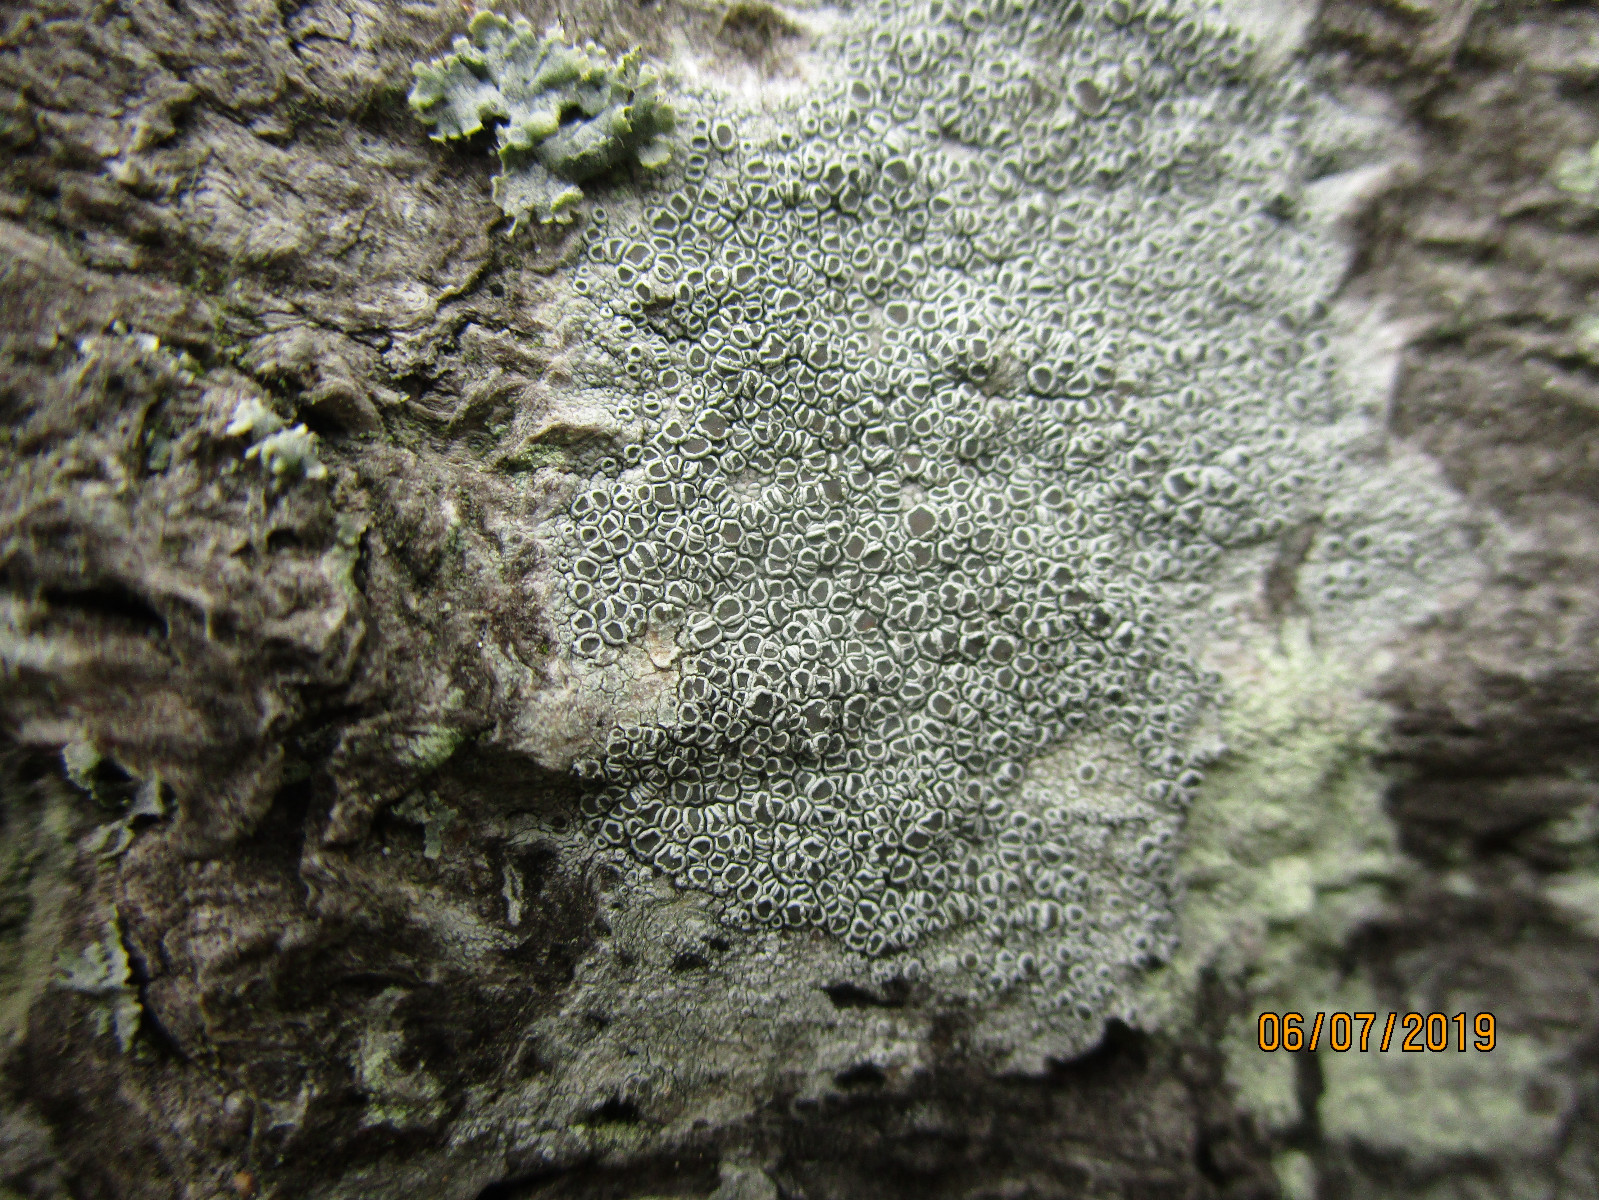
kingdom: Fungi
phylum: Ascomycota
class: Lecanoromycetes
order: Lecanorales
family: Lecanoraceae
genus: Lecanora
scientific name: Lecanora chlarotera
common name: brun kantskivelav
